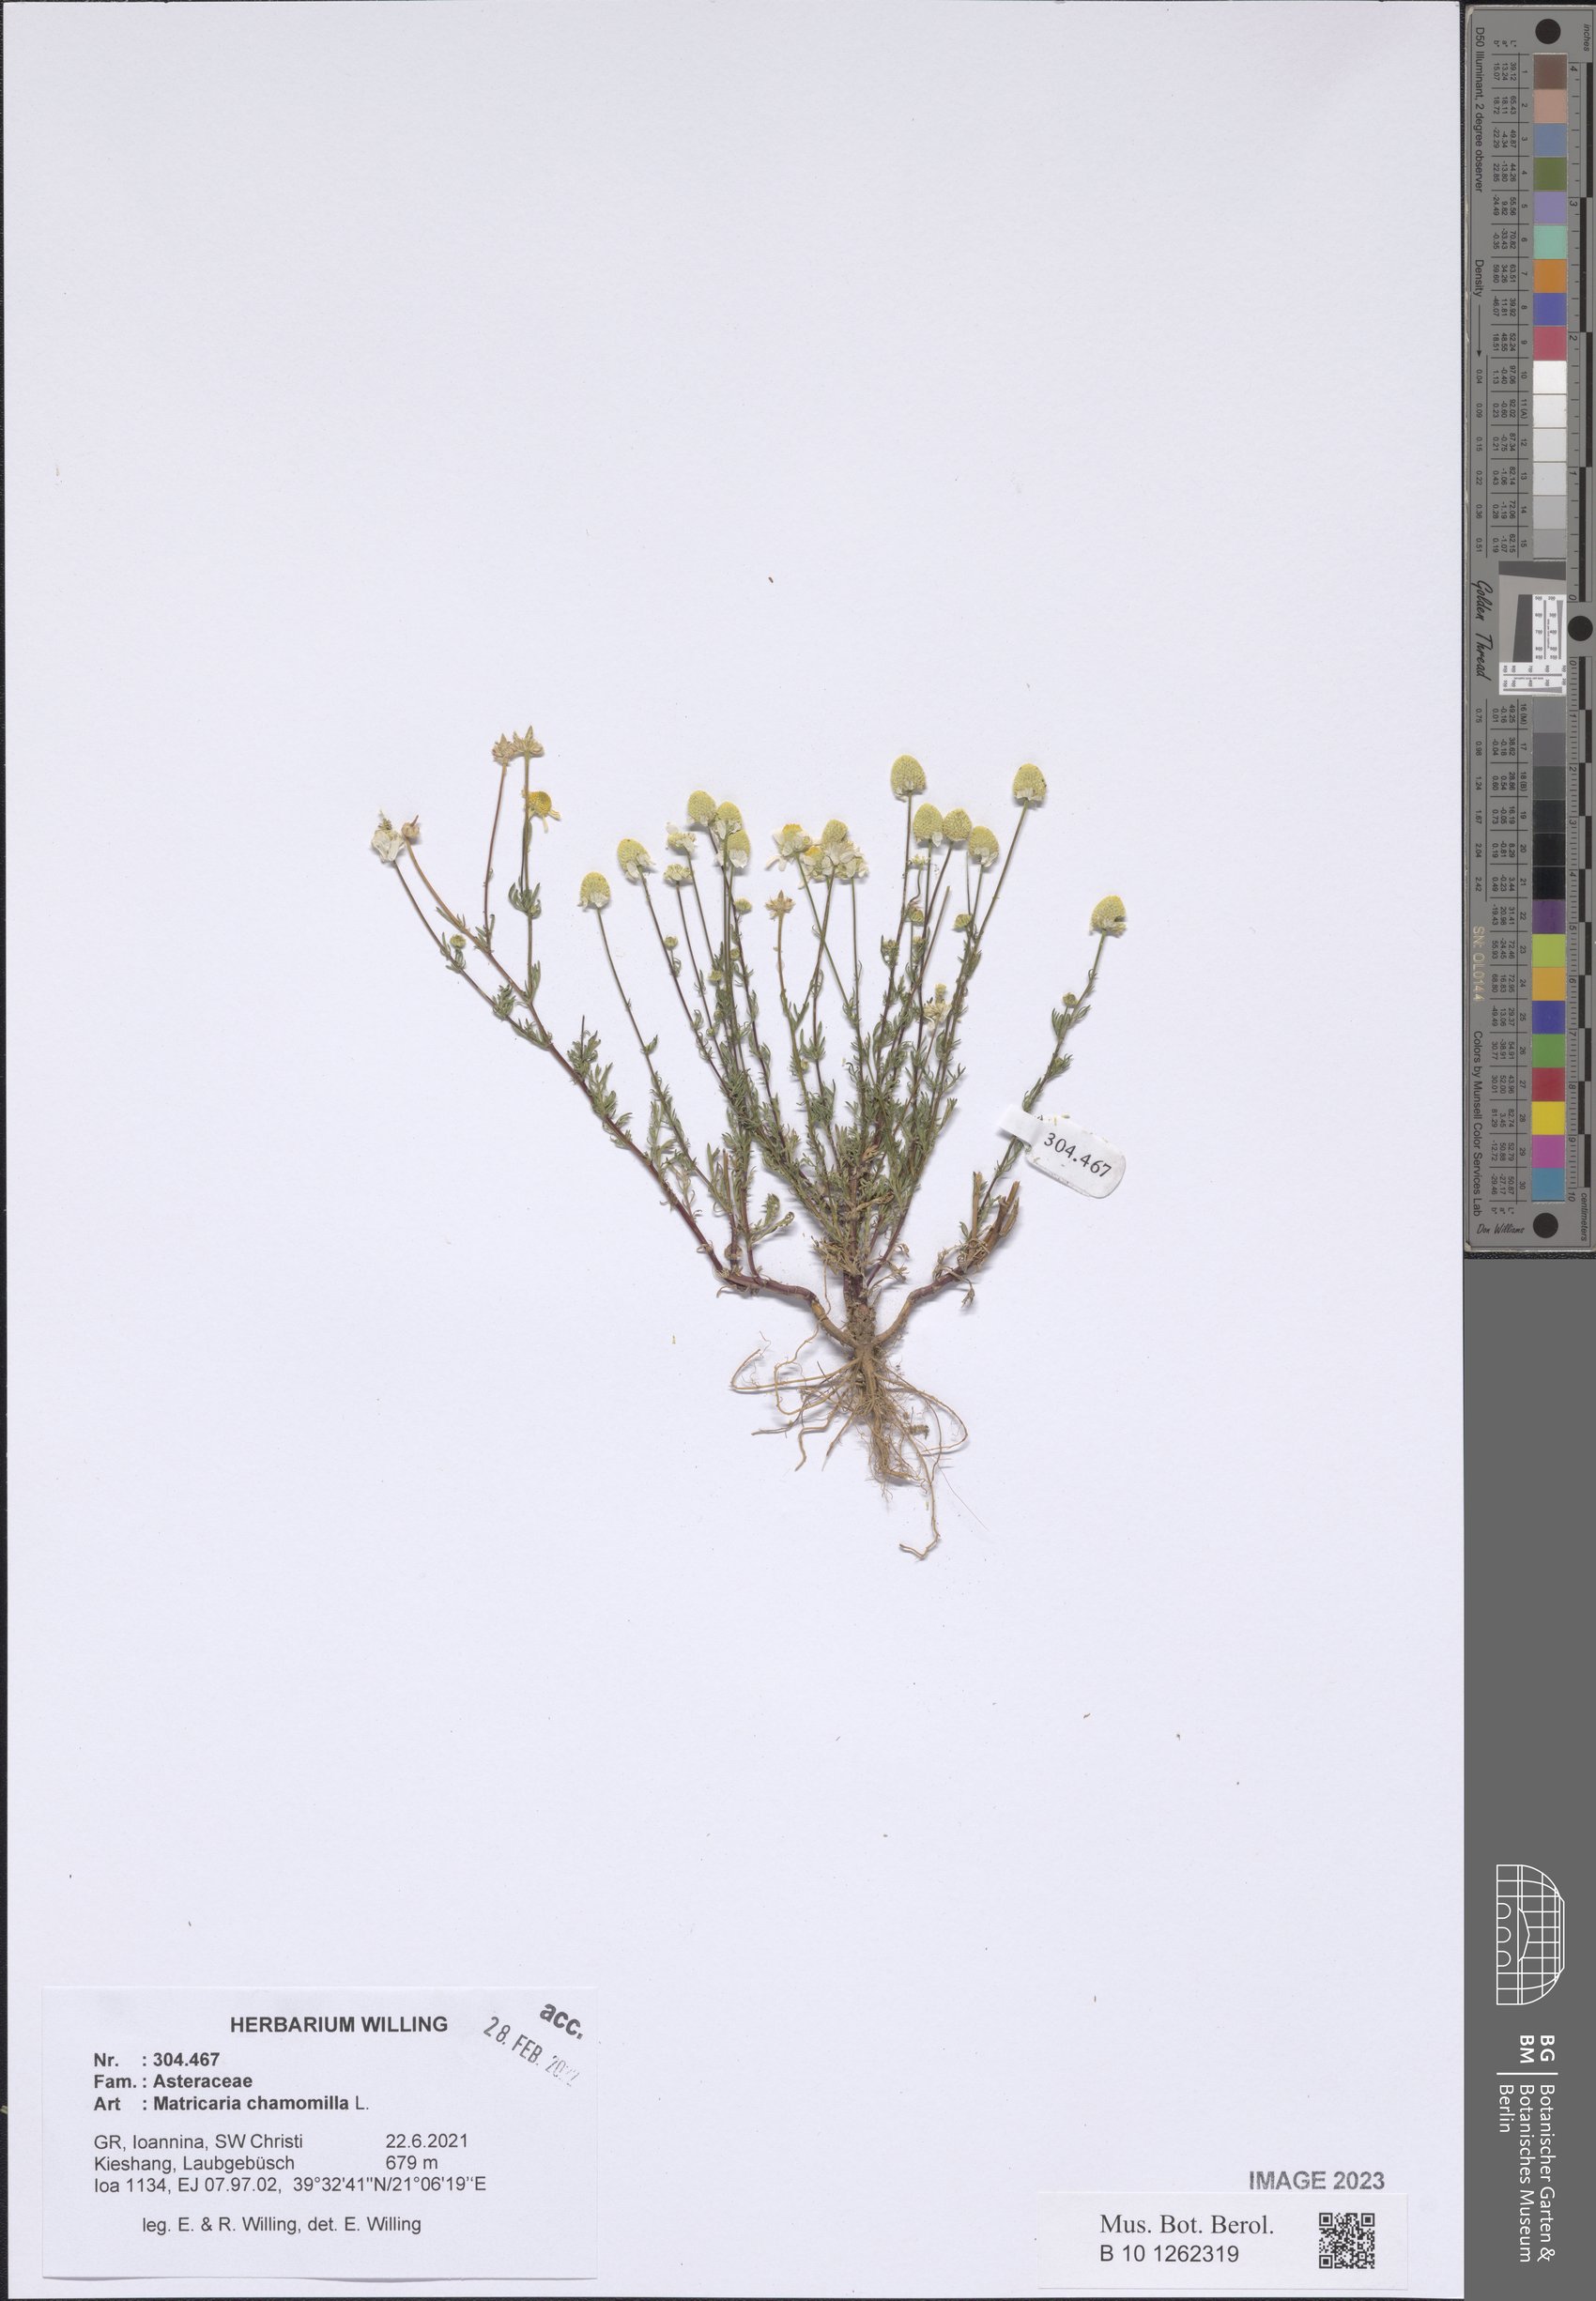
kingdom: Plantae
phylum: Tracheophyta
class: Magnoliopsida
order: Asterales
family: Asteraceae
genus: Matricaria
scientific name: Matricaria chamomilla
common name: Scented mayweed
